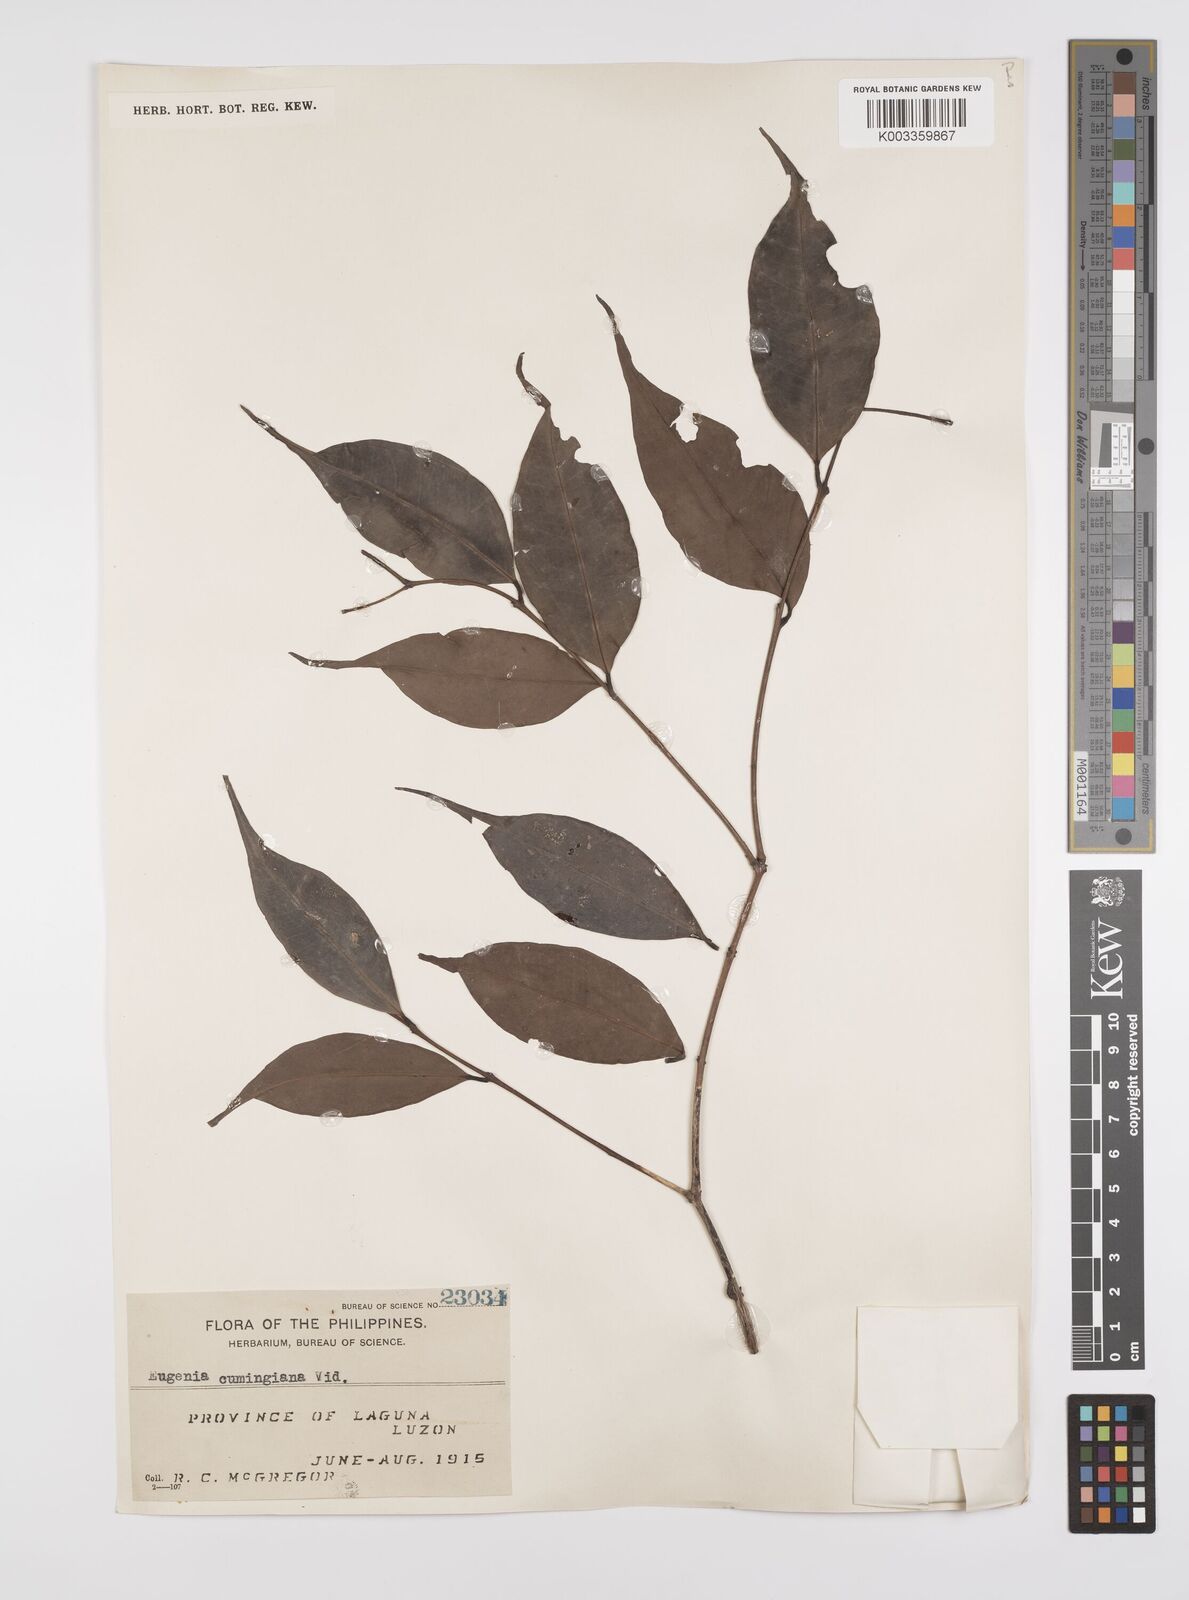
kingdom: Plantae
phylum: Tracheophyta
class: Magnoliopsida
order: Myrtales
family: Myrtaceae
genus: Syzygium
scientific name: Syzygium acuminatissimum
